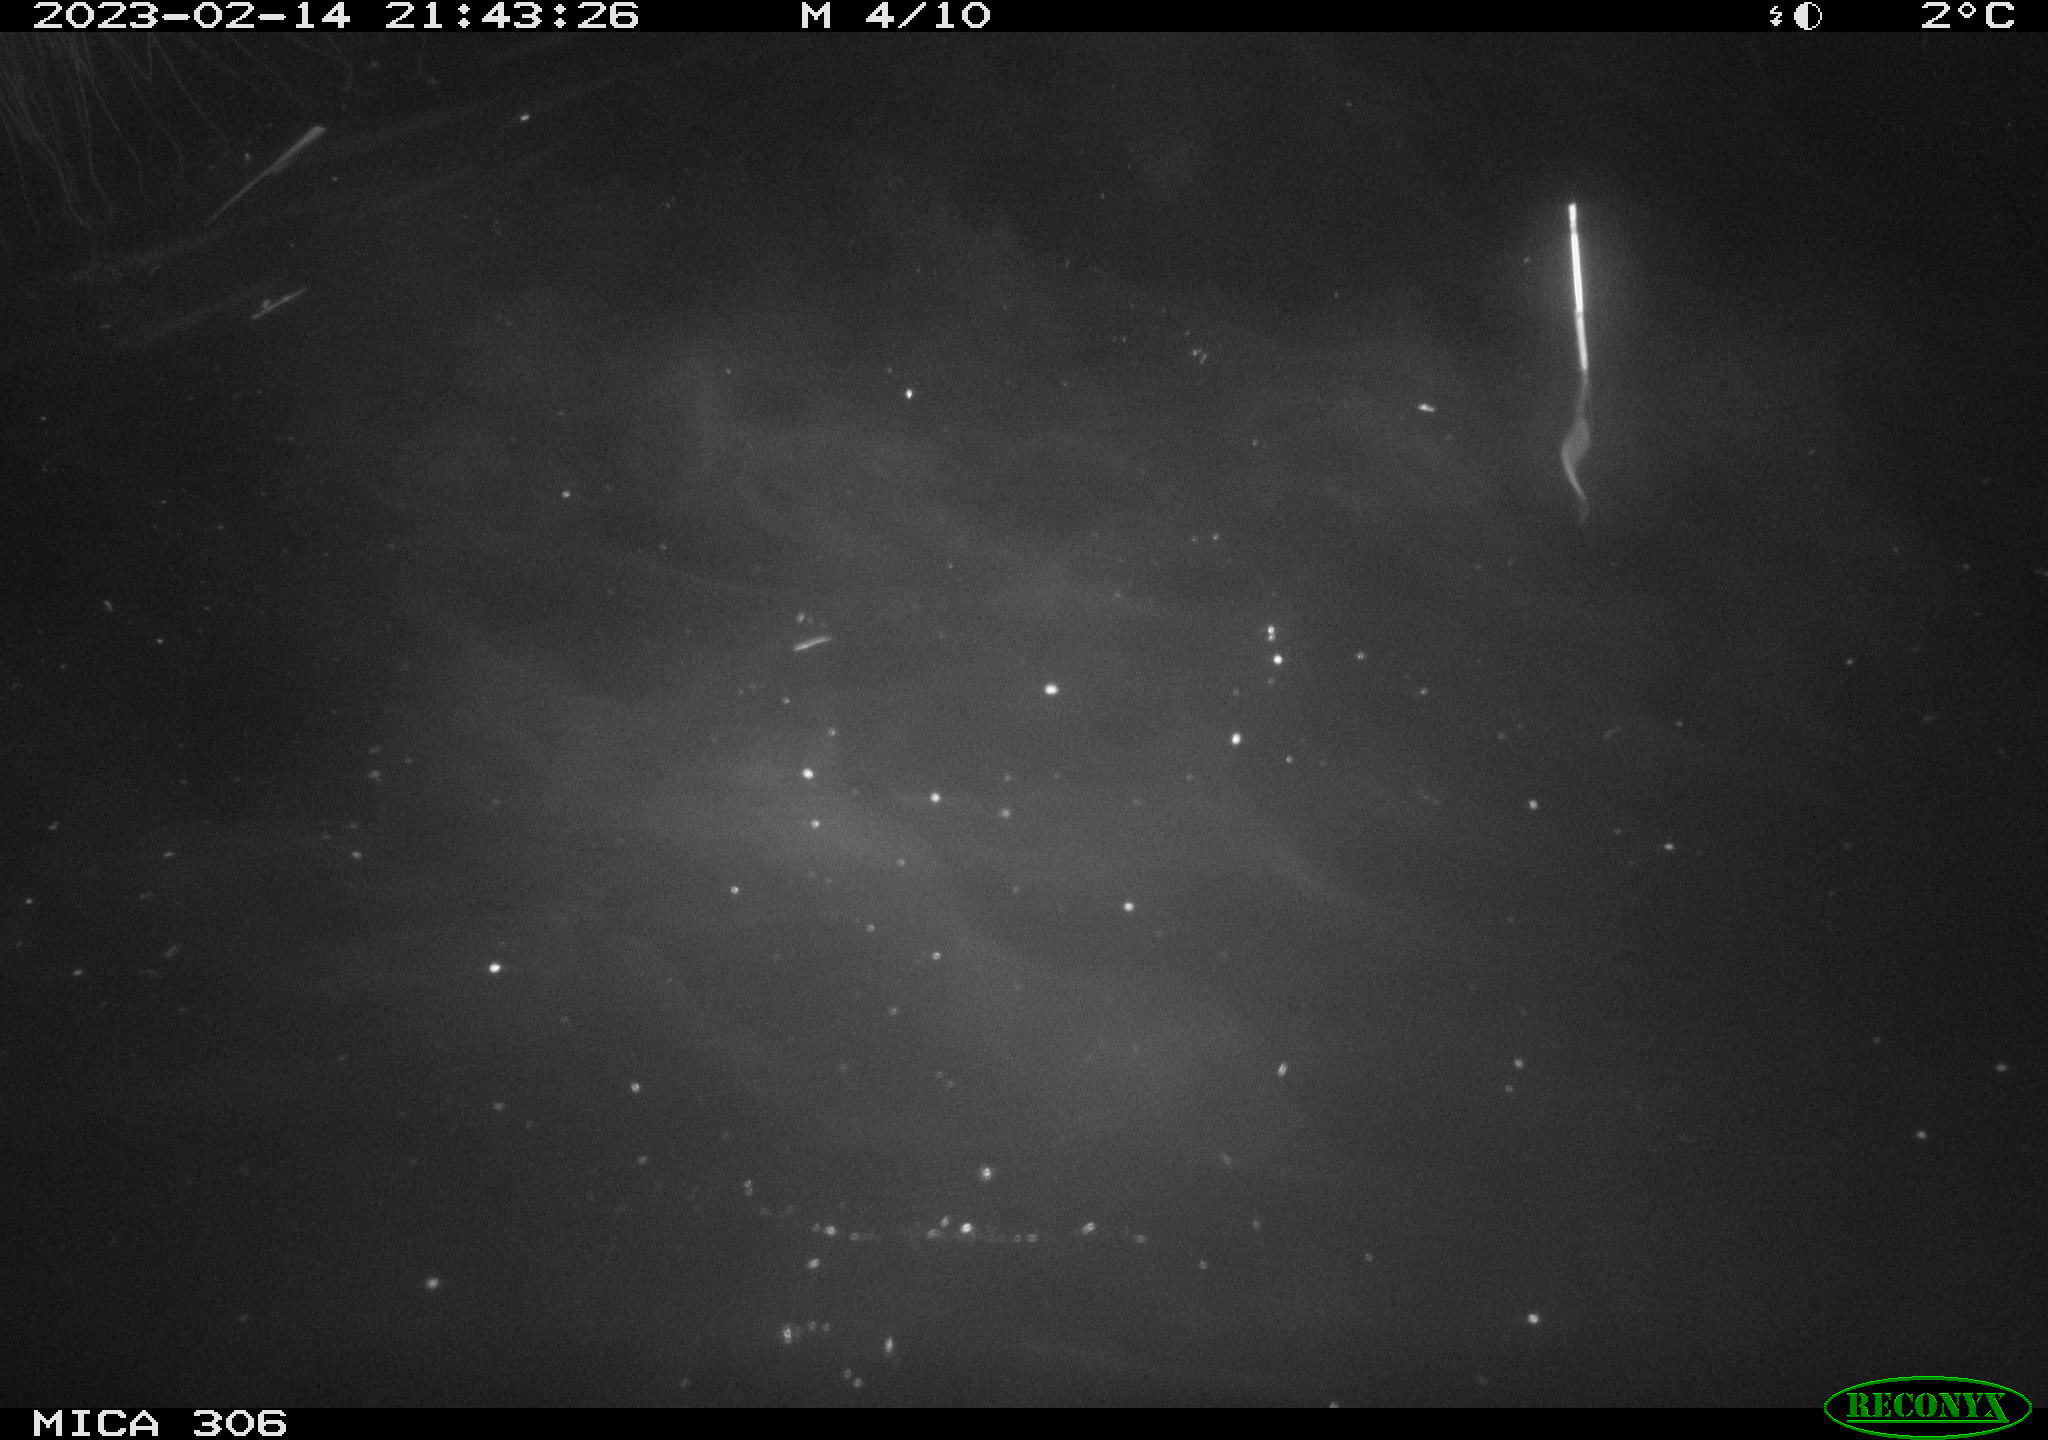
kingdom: Animalia
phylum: Chordata
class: Mammalia
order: Rodentia
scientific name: Rodentia
